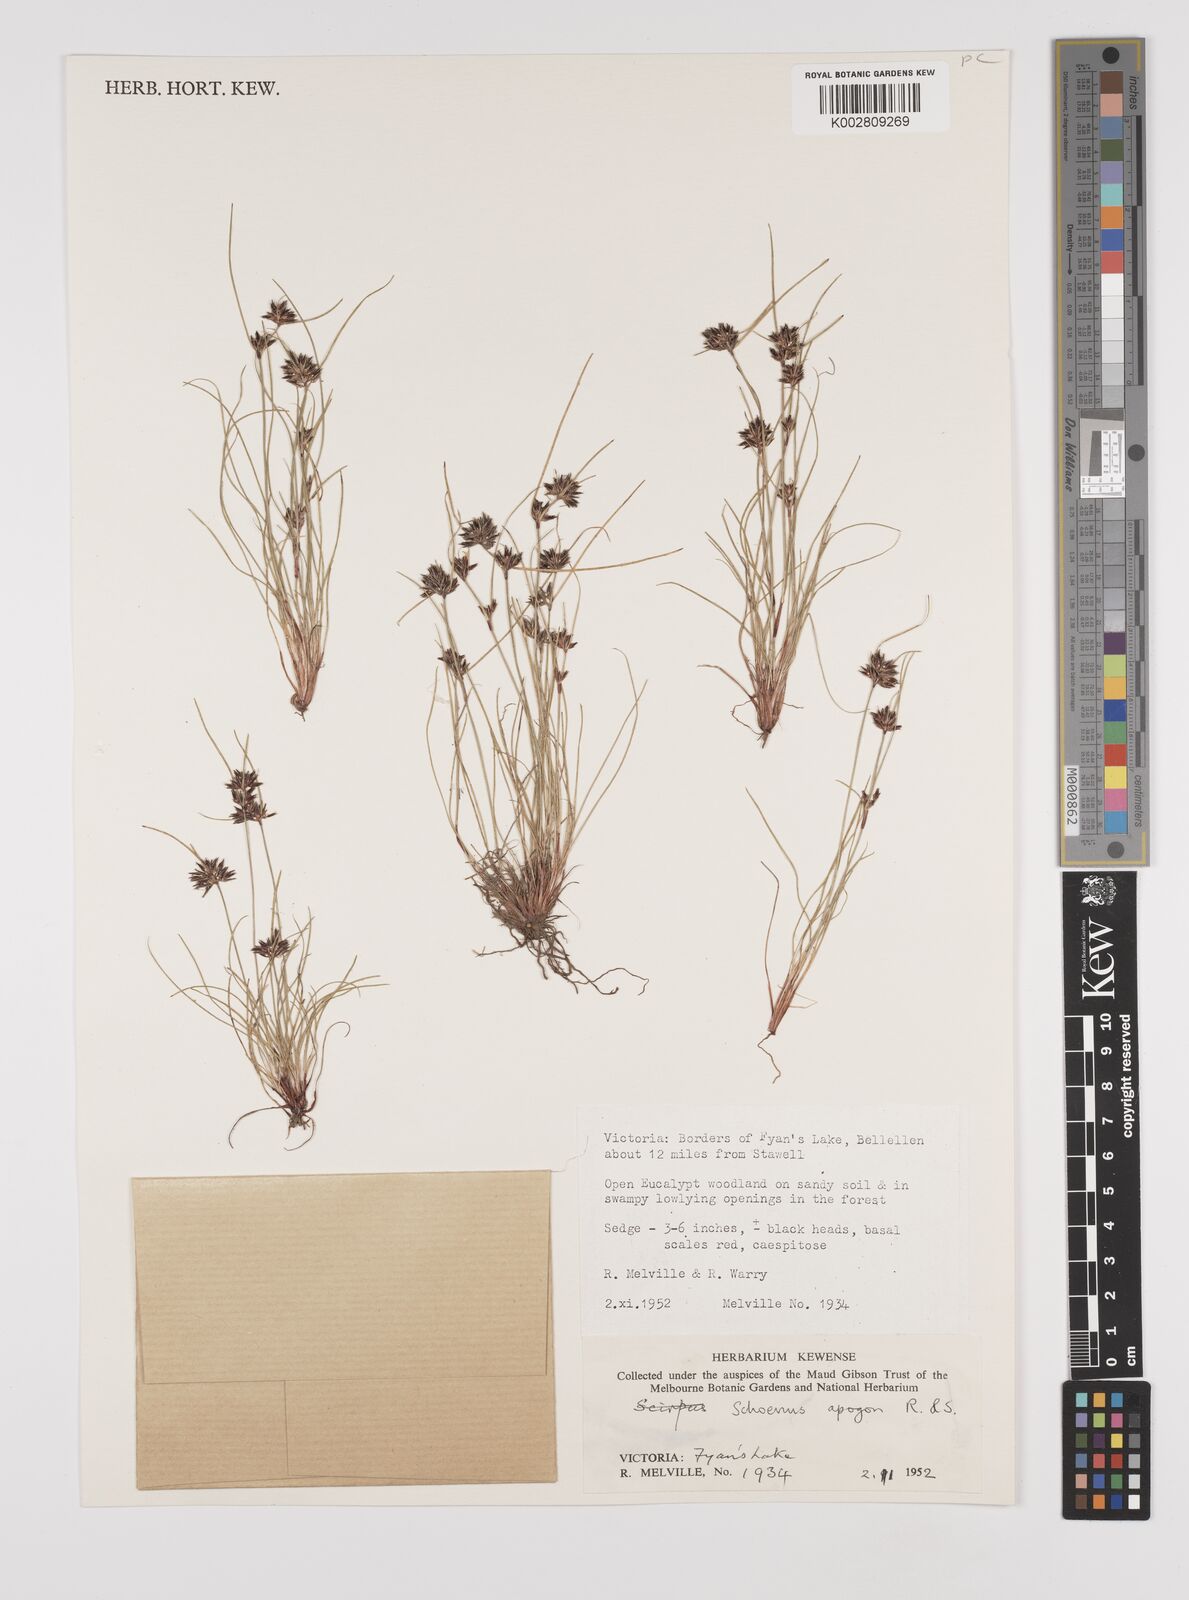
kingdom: Plantae
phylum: Tracheophyta
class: Liliopsida
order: Poales
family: Cyperaceae
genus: Schoenus
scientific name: Schoenus apogon
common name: Smooth bogrush
